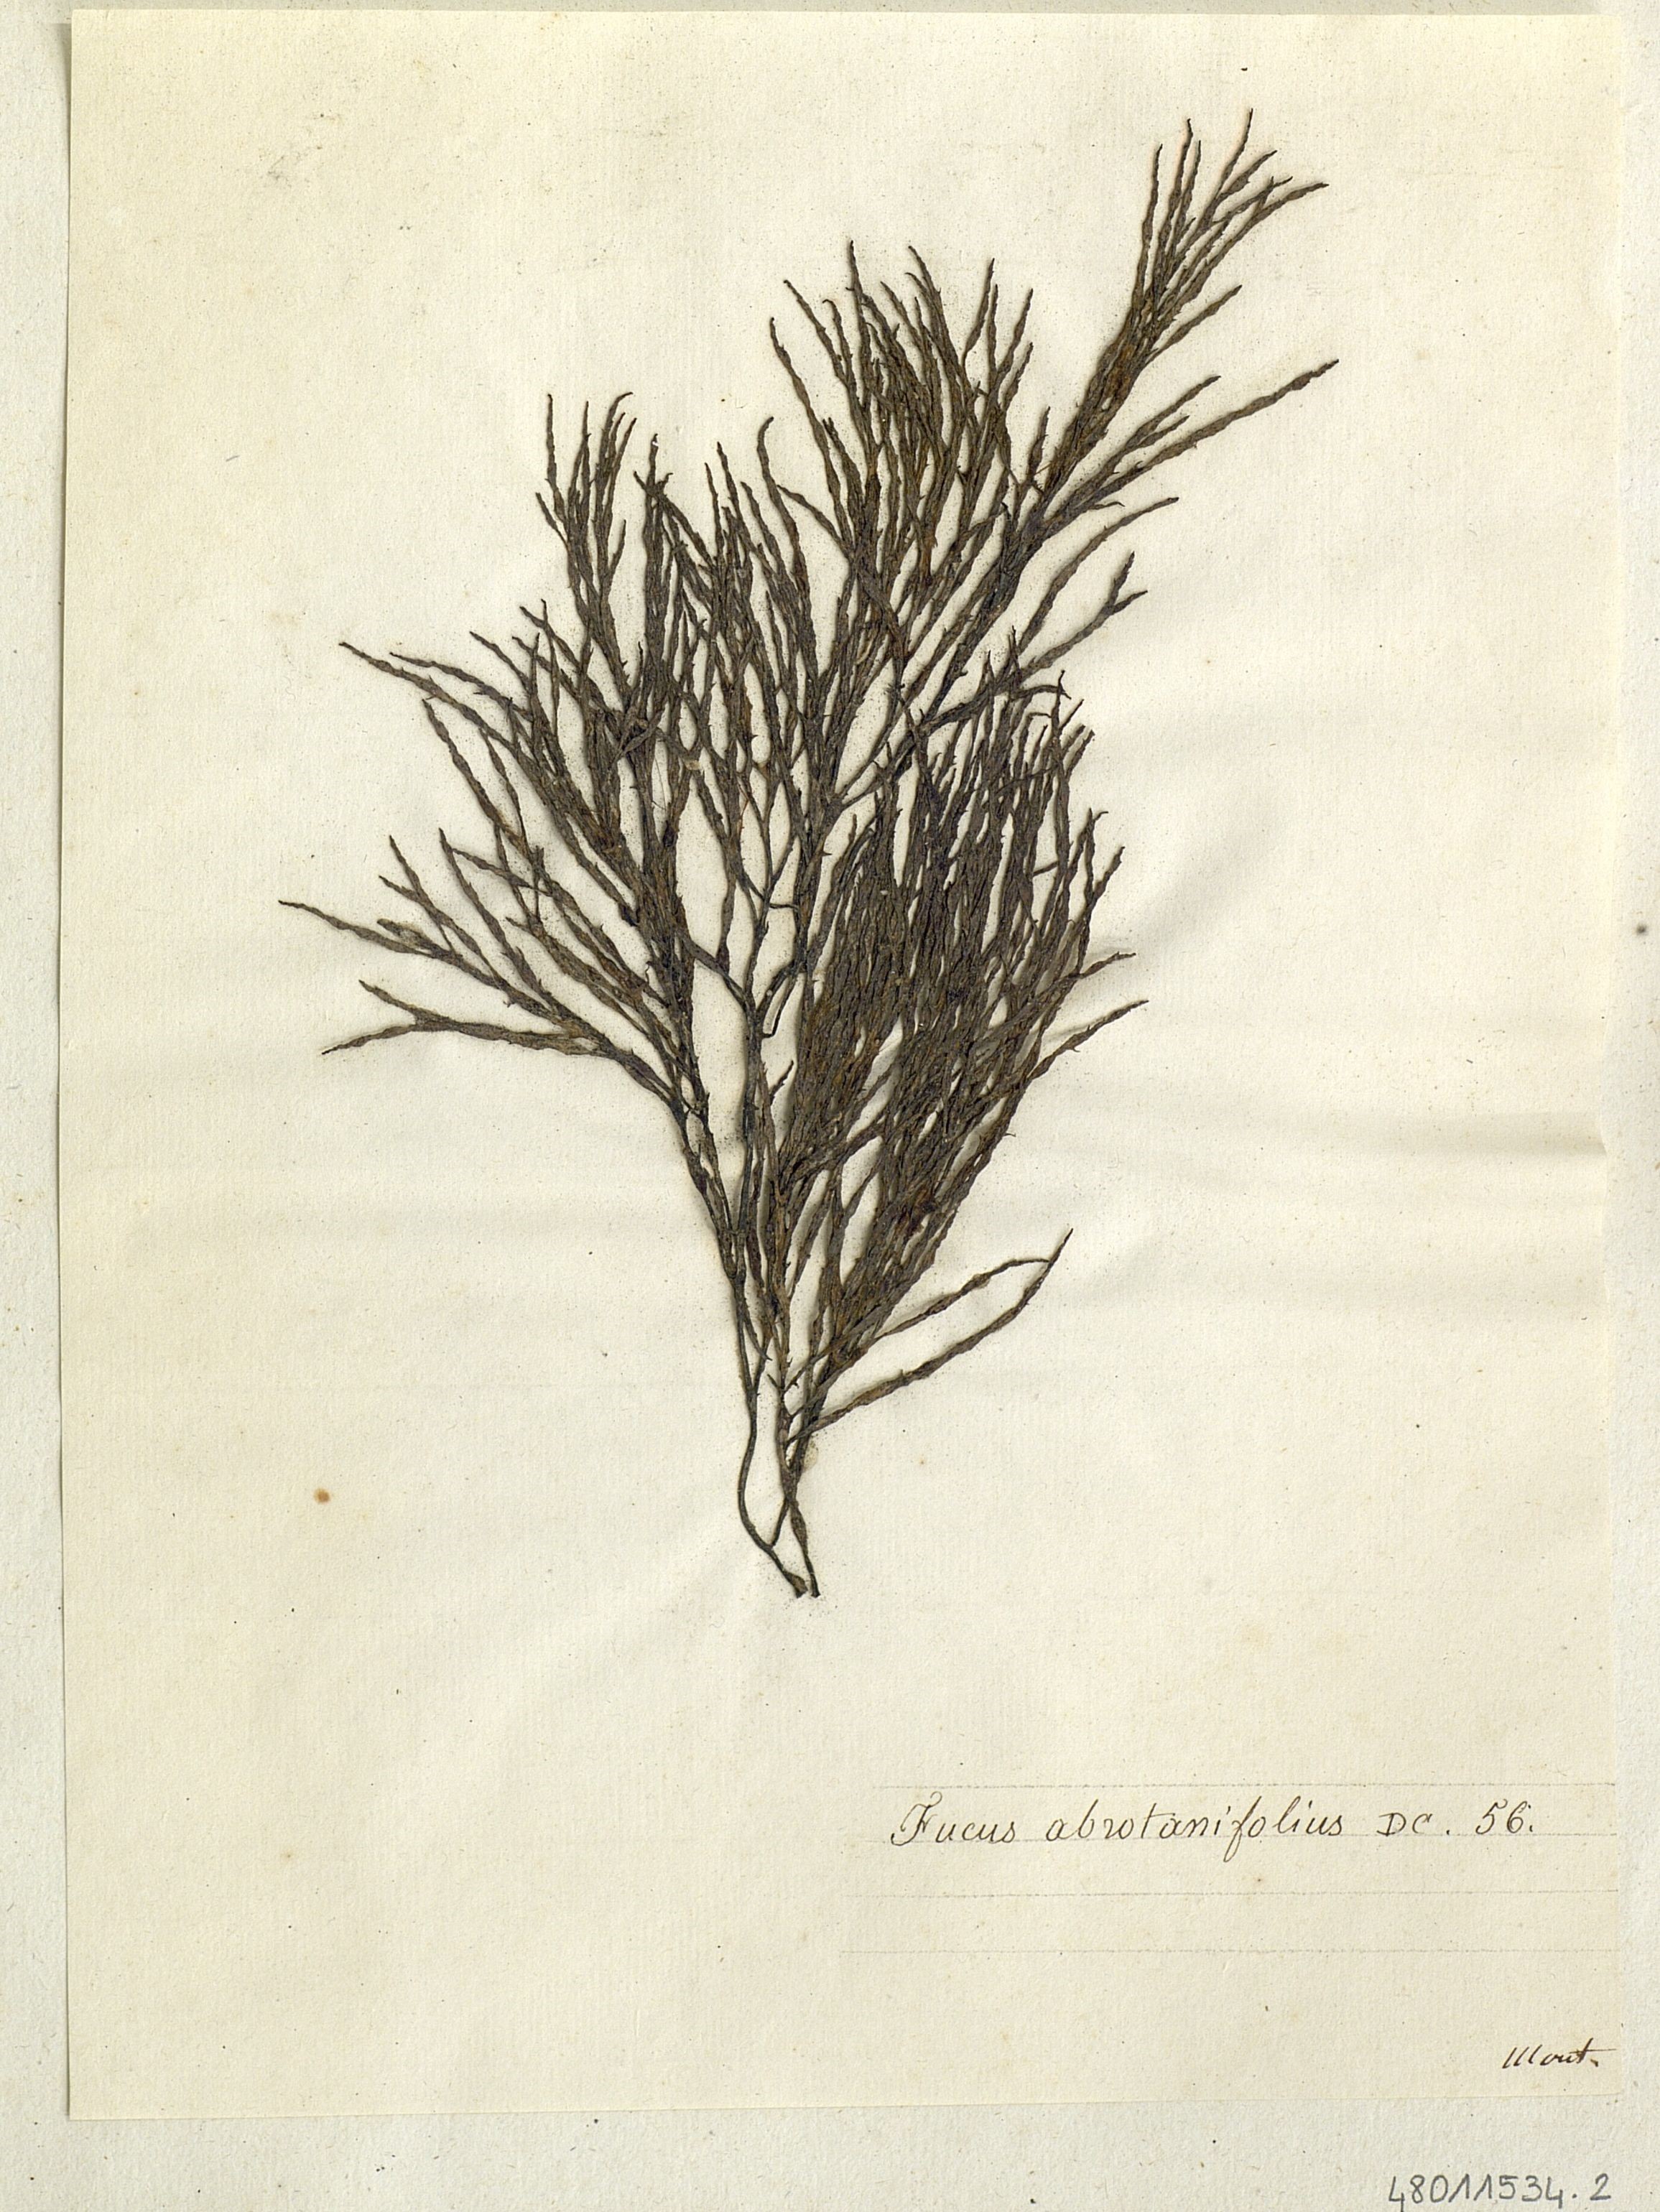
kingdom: Chromista
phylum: Ochrophyta
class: Phaeophyceae
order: Fucales
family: Sargassaceae
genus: Cystoseira
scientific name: Cystoseira foeniculacea
